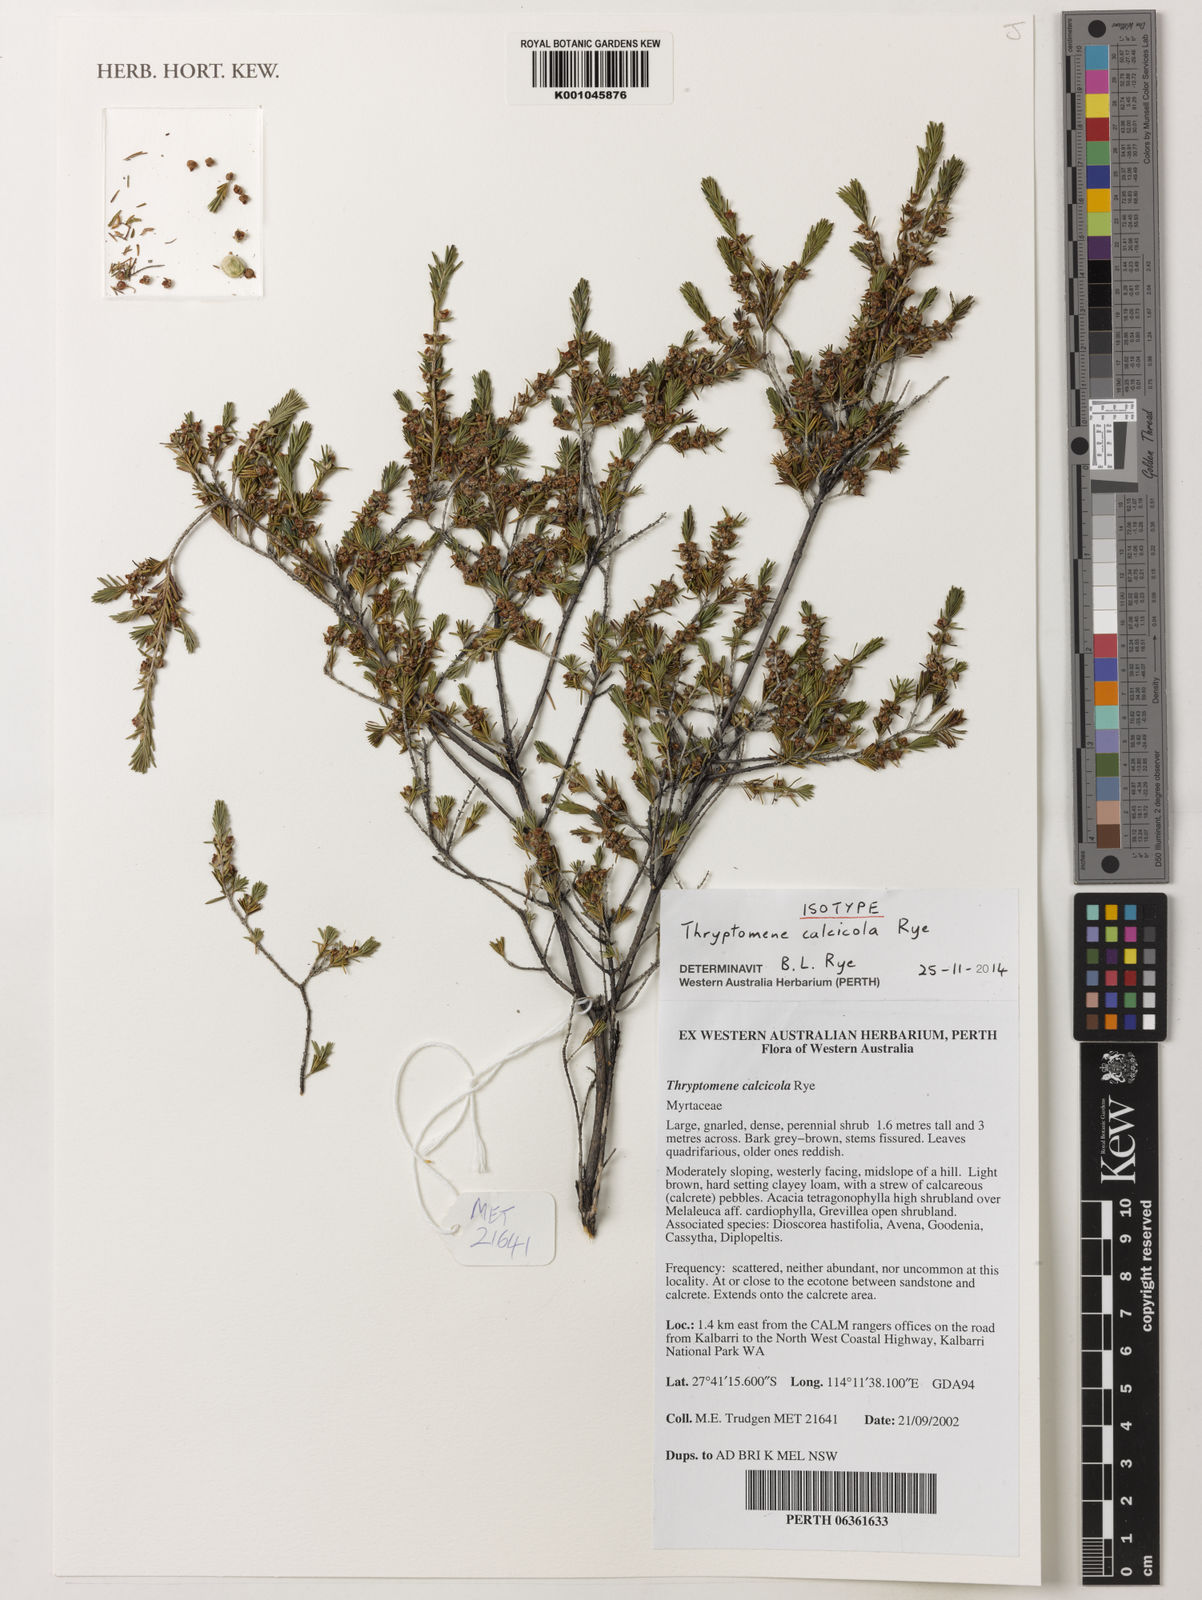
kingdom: Plantae
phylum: Tracheophyta
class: Magnoliopsida
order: Myrtales
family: Myrtaceae
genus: Thryptomene
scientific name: Thryptomene calcicola
